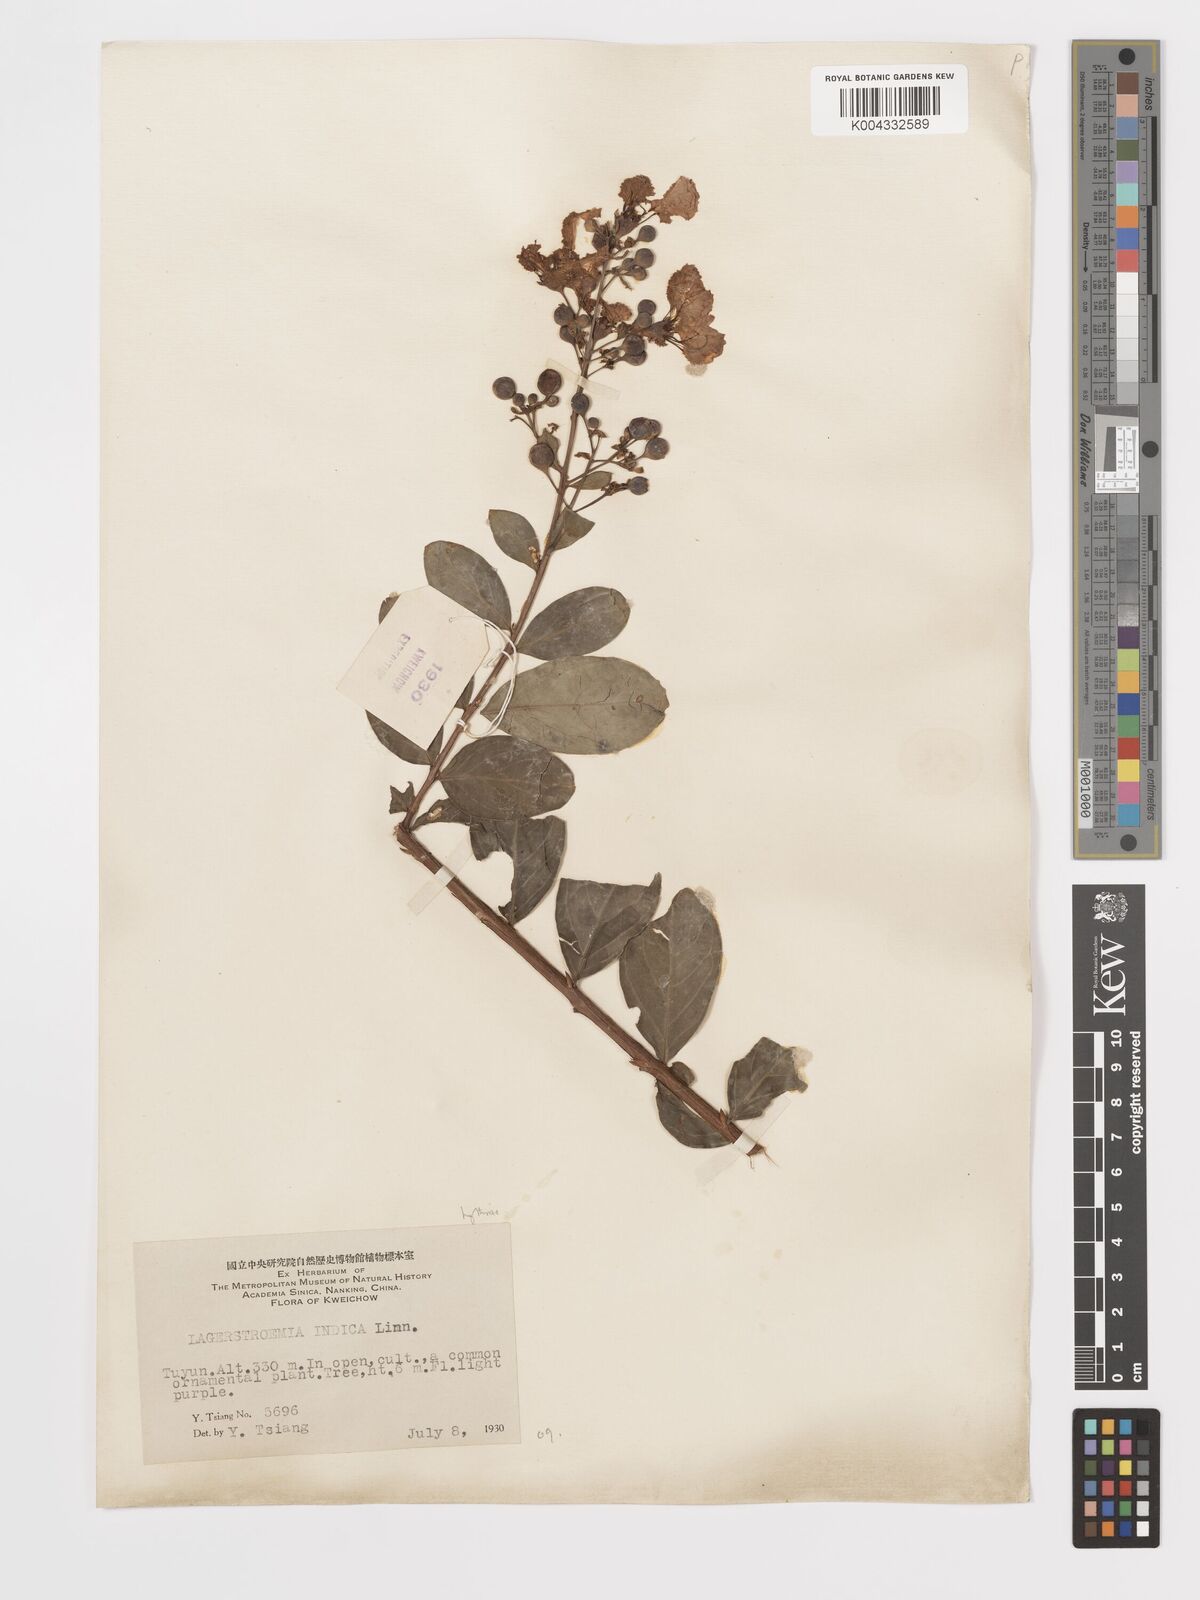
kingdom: Plantae
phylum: Tracheophyta
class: Magnoliopsida
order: Myrtales
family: Lythraceae
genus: Lagerstroemia
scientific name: Lagerstroemia indica
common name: Crape-myrtle
